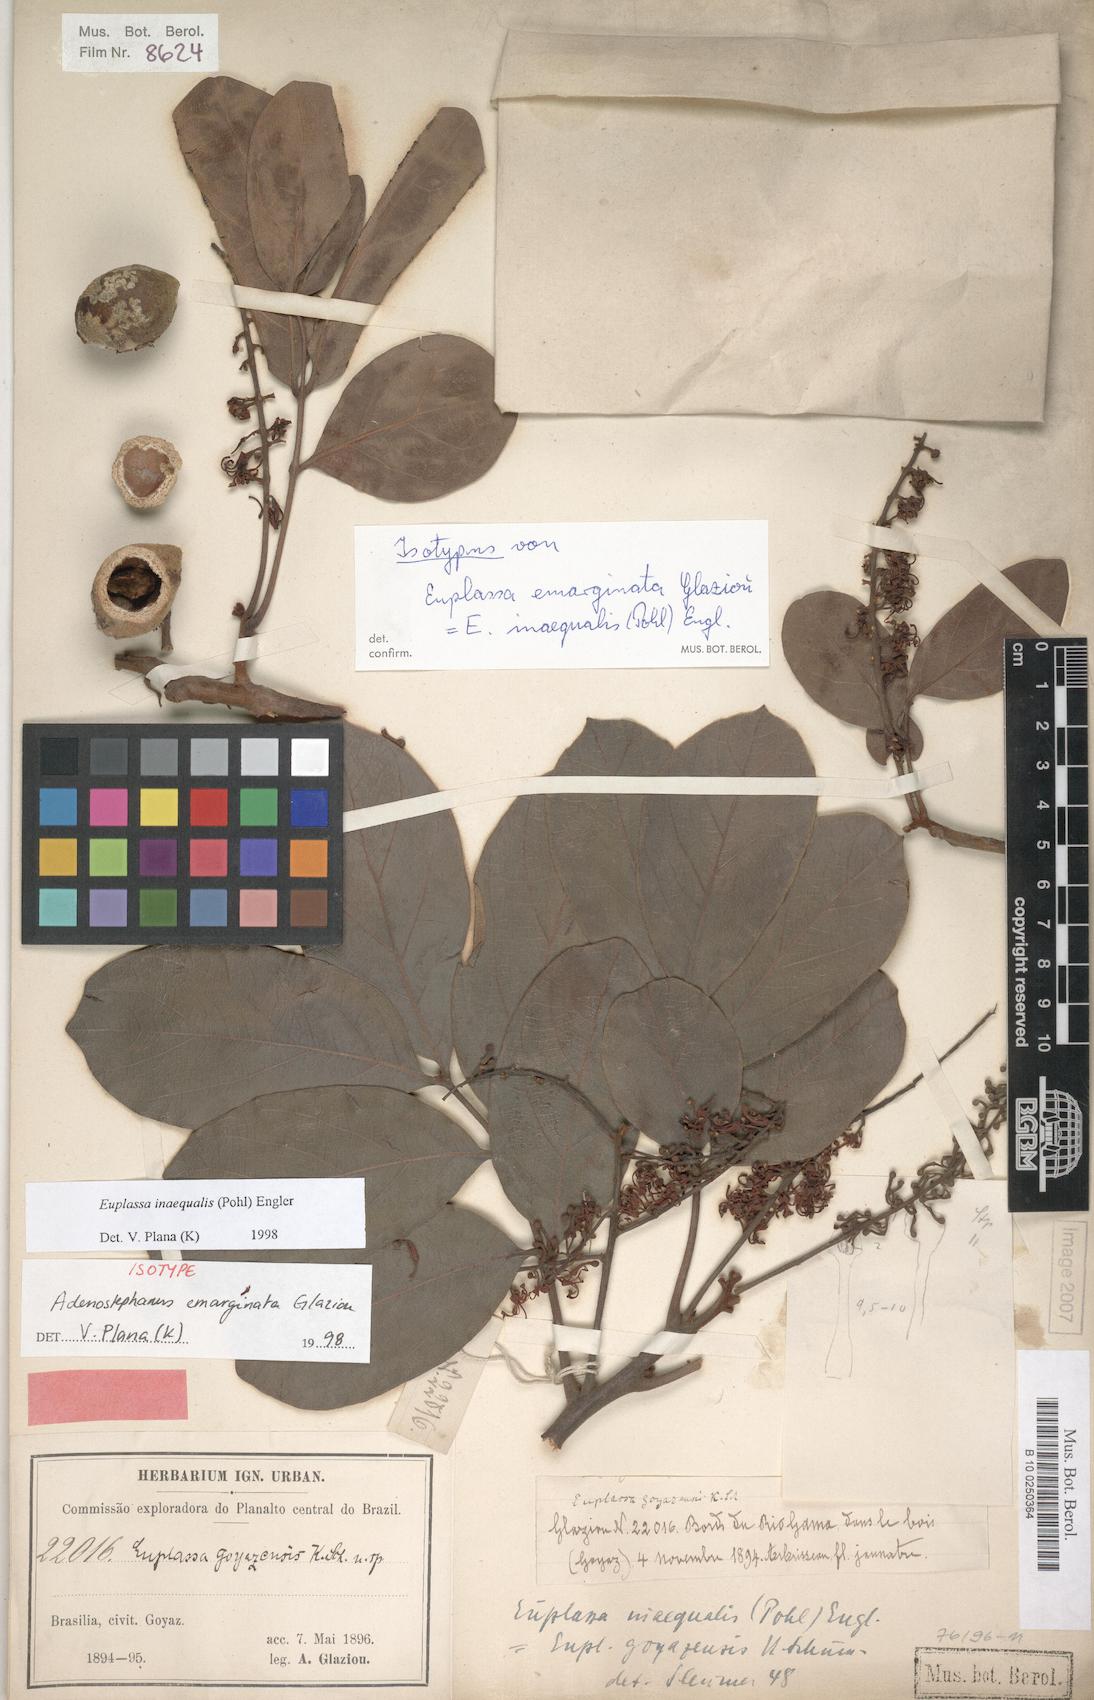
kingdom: Plantae
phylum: Tracheophyta
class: Magnoliopsida
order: Proteales
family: Proteaceae
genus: Euplassa
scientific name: Euplassa inaequalis
